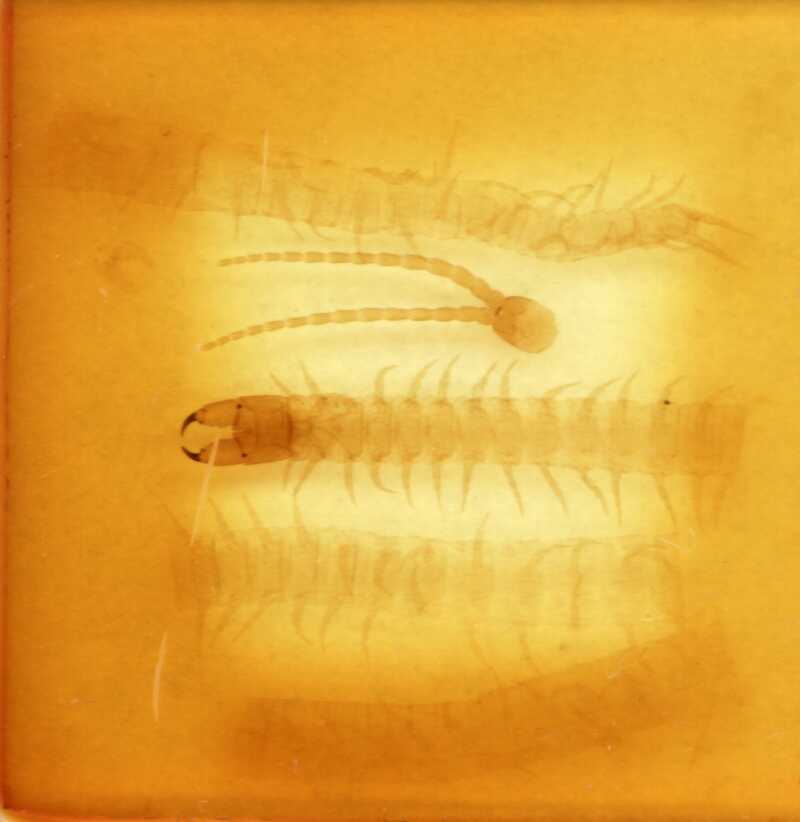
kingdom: Animalia
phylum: Arthropoda
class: Chilopoda
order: Geophilomorpha
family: Geophilidae
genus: Polygonarea
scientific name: Polygonarea litoralis
